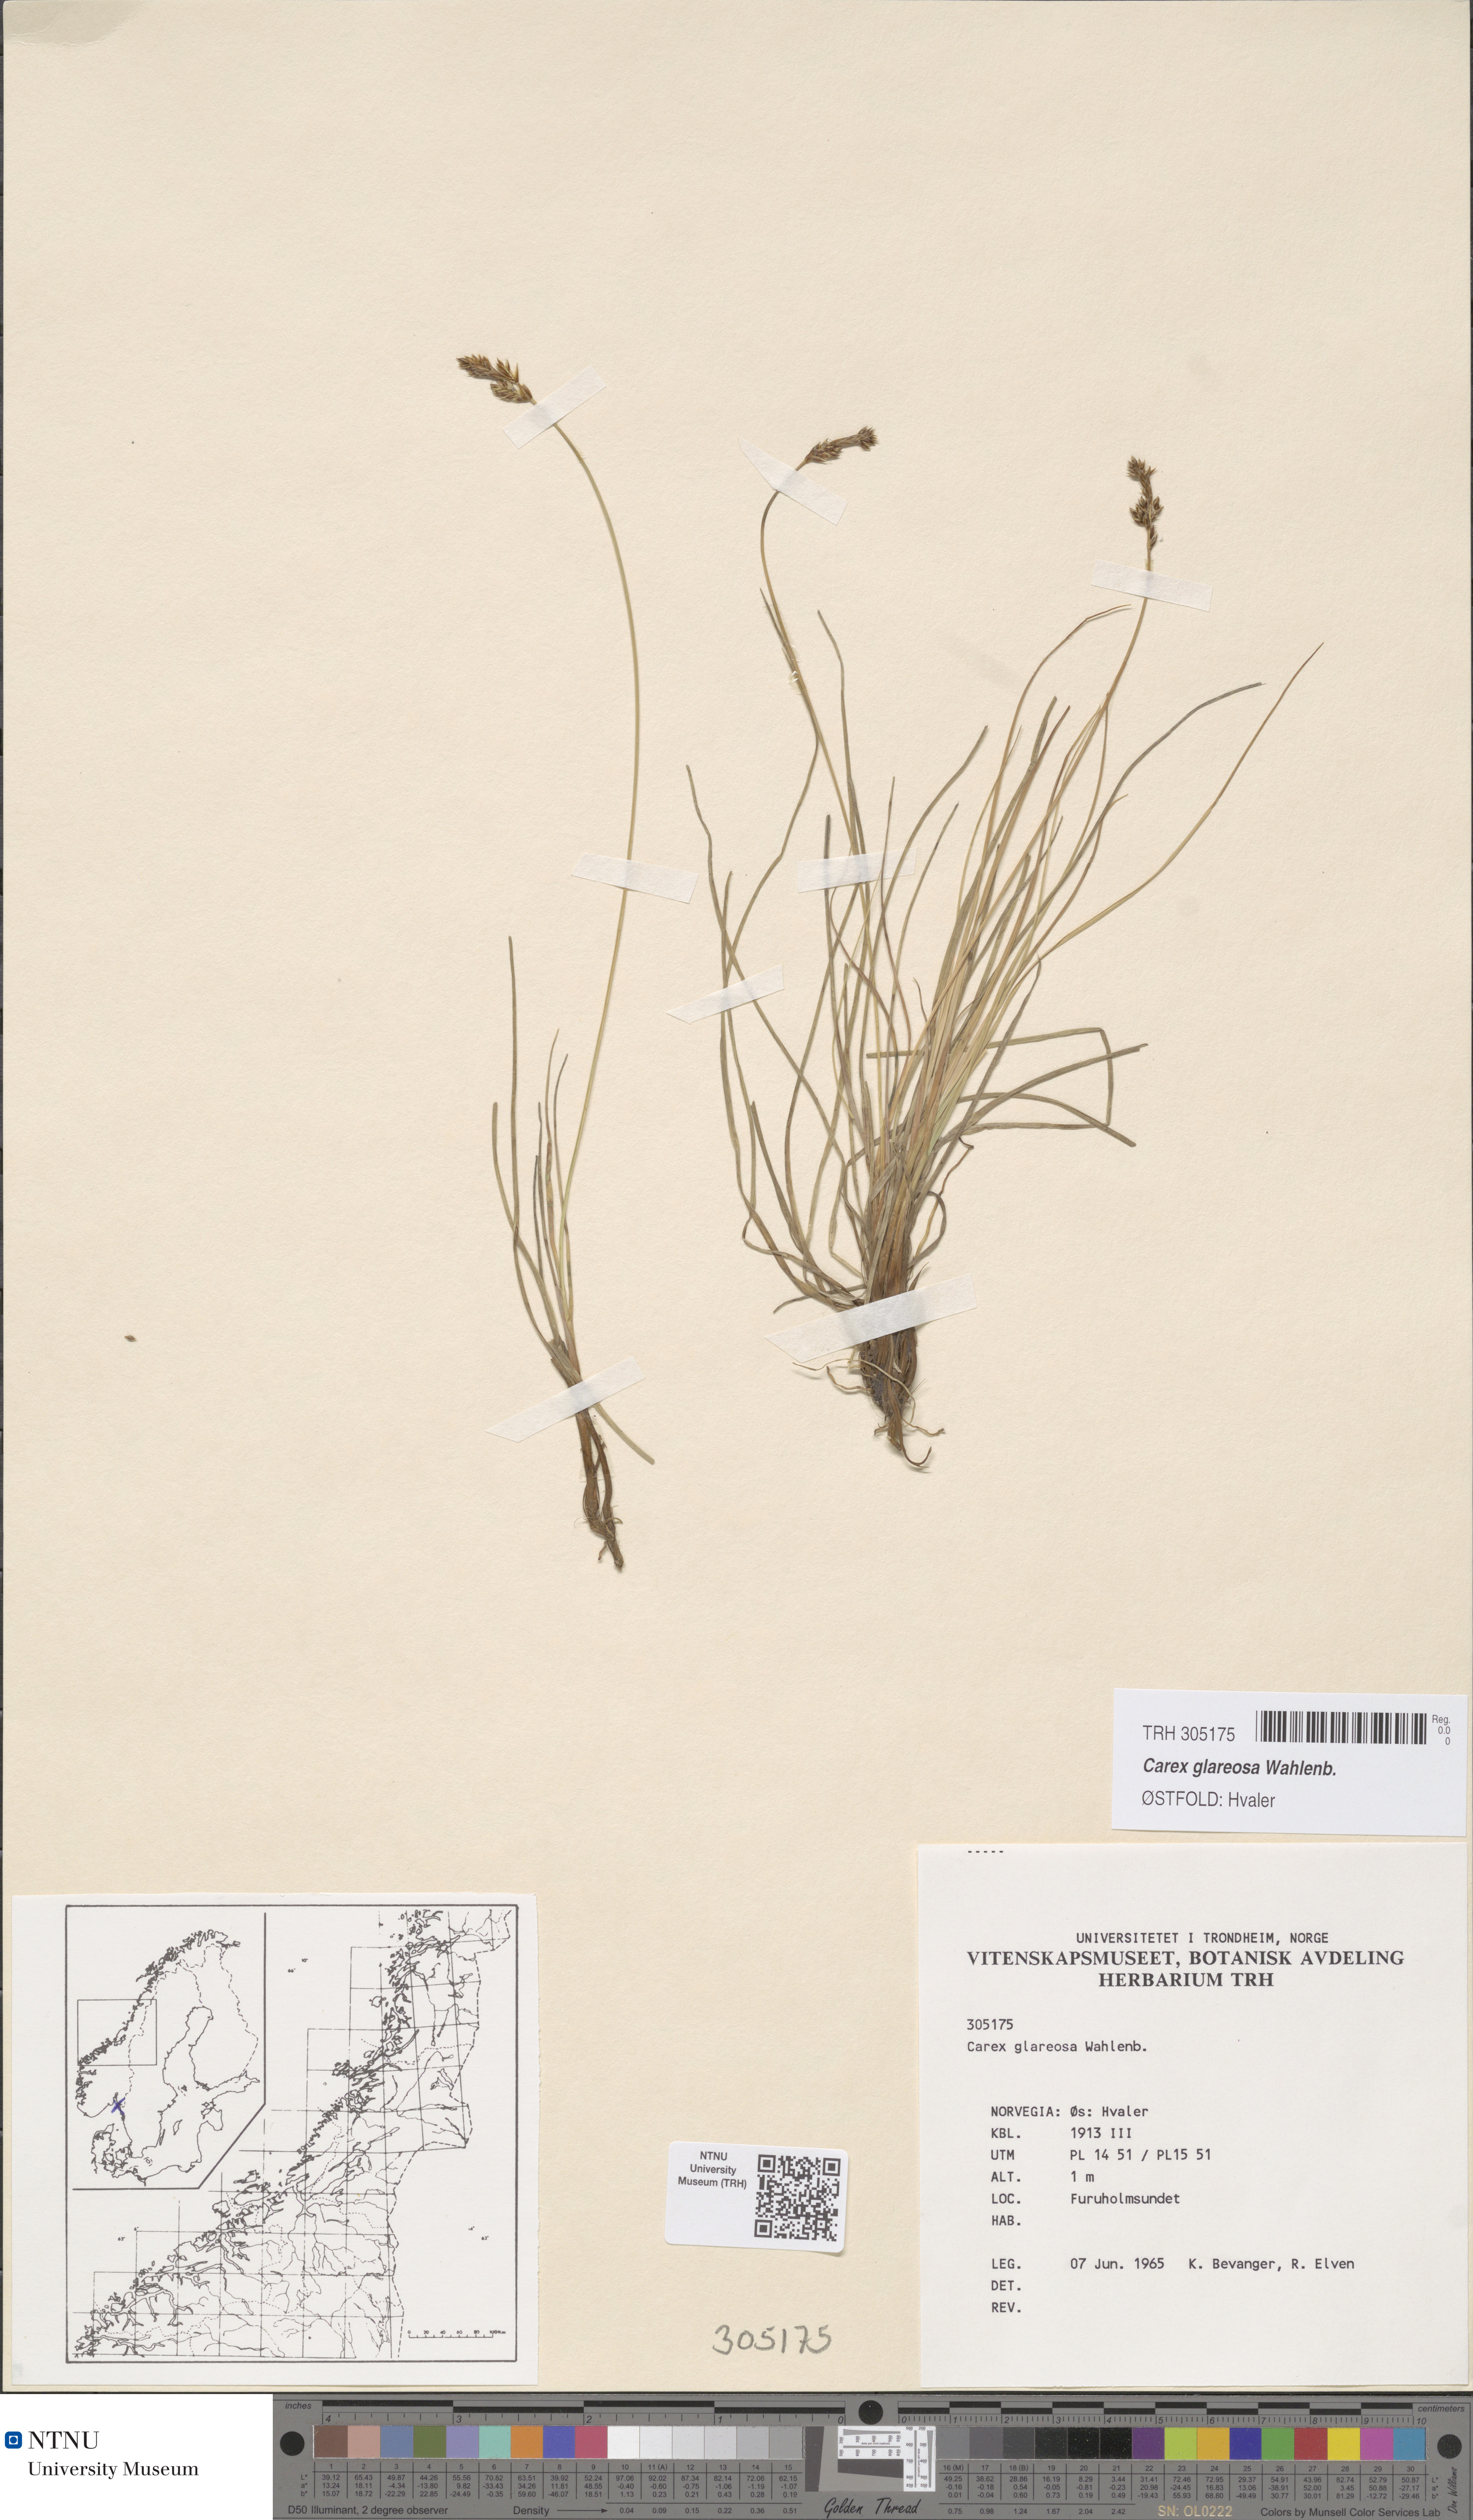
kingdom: Plantae
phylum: Tracheophyta
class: Liliopsida
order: Poales
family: Cyperaceae
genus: Carex
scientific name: Carex glareosa
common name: Clustered sedge
